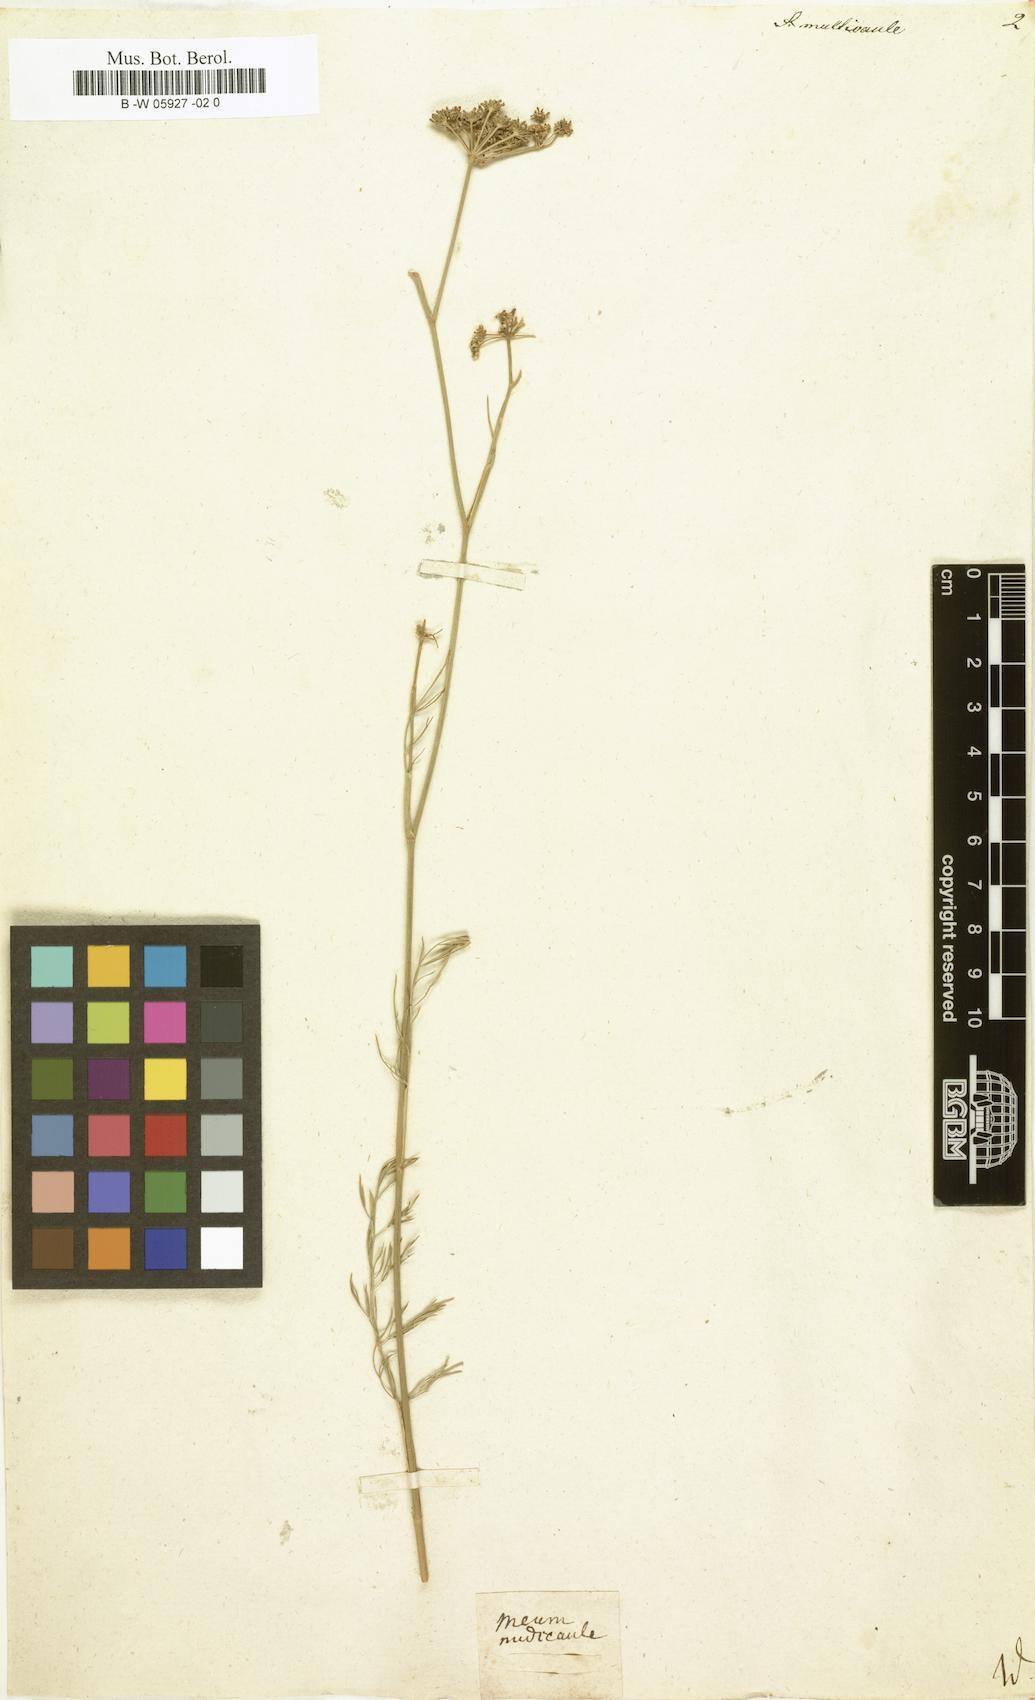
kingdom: Plantae
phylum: Tracheophyta
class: Magnoliopsida
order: Apiales
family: Apiaceae
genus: Seseli
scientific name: Seseli montanum
